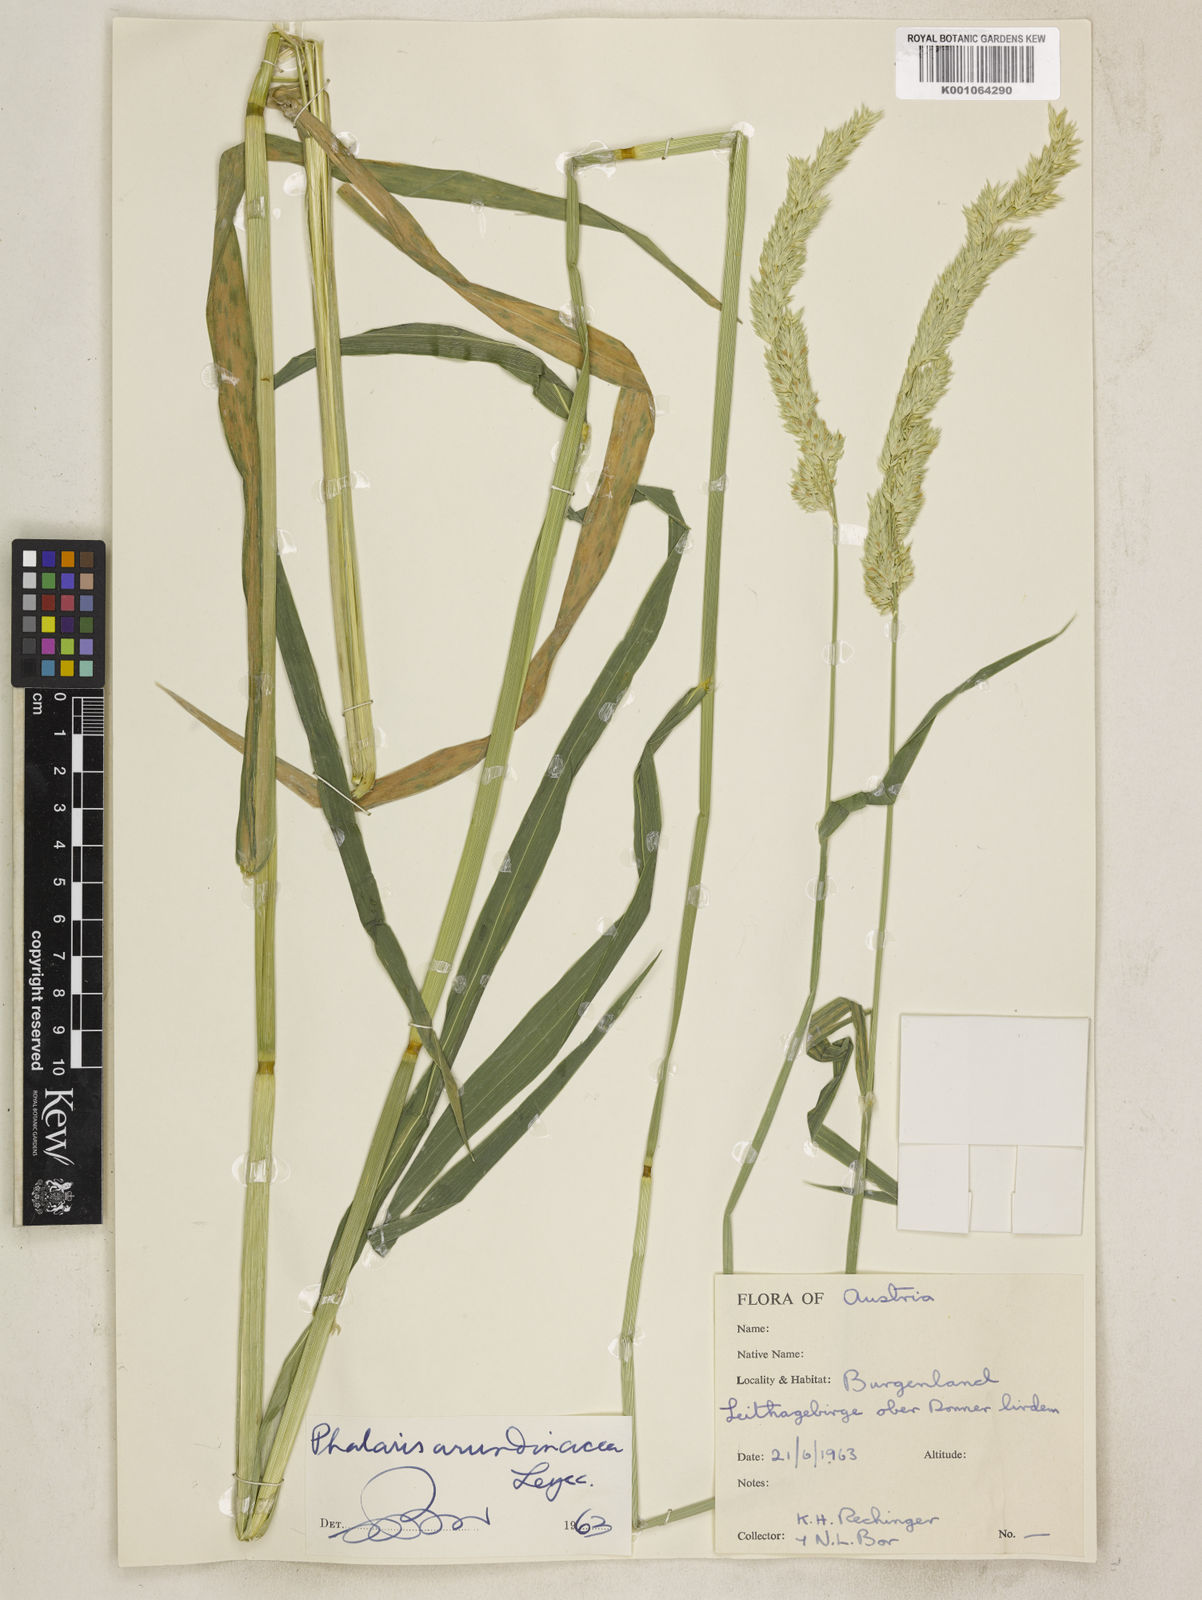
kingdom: Plantae
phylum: Tracheophyta
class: Liliopsida
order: Poales
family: Poaceae
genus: Phalaris
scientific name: Phalaris arundinacea
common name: Reed canary-grass
